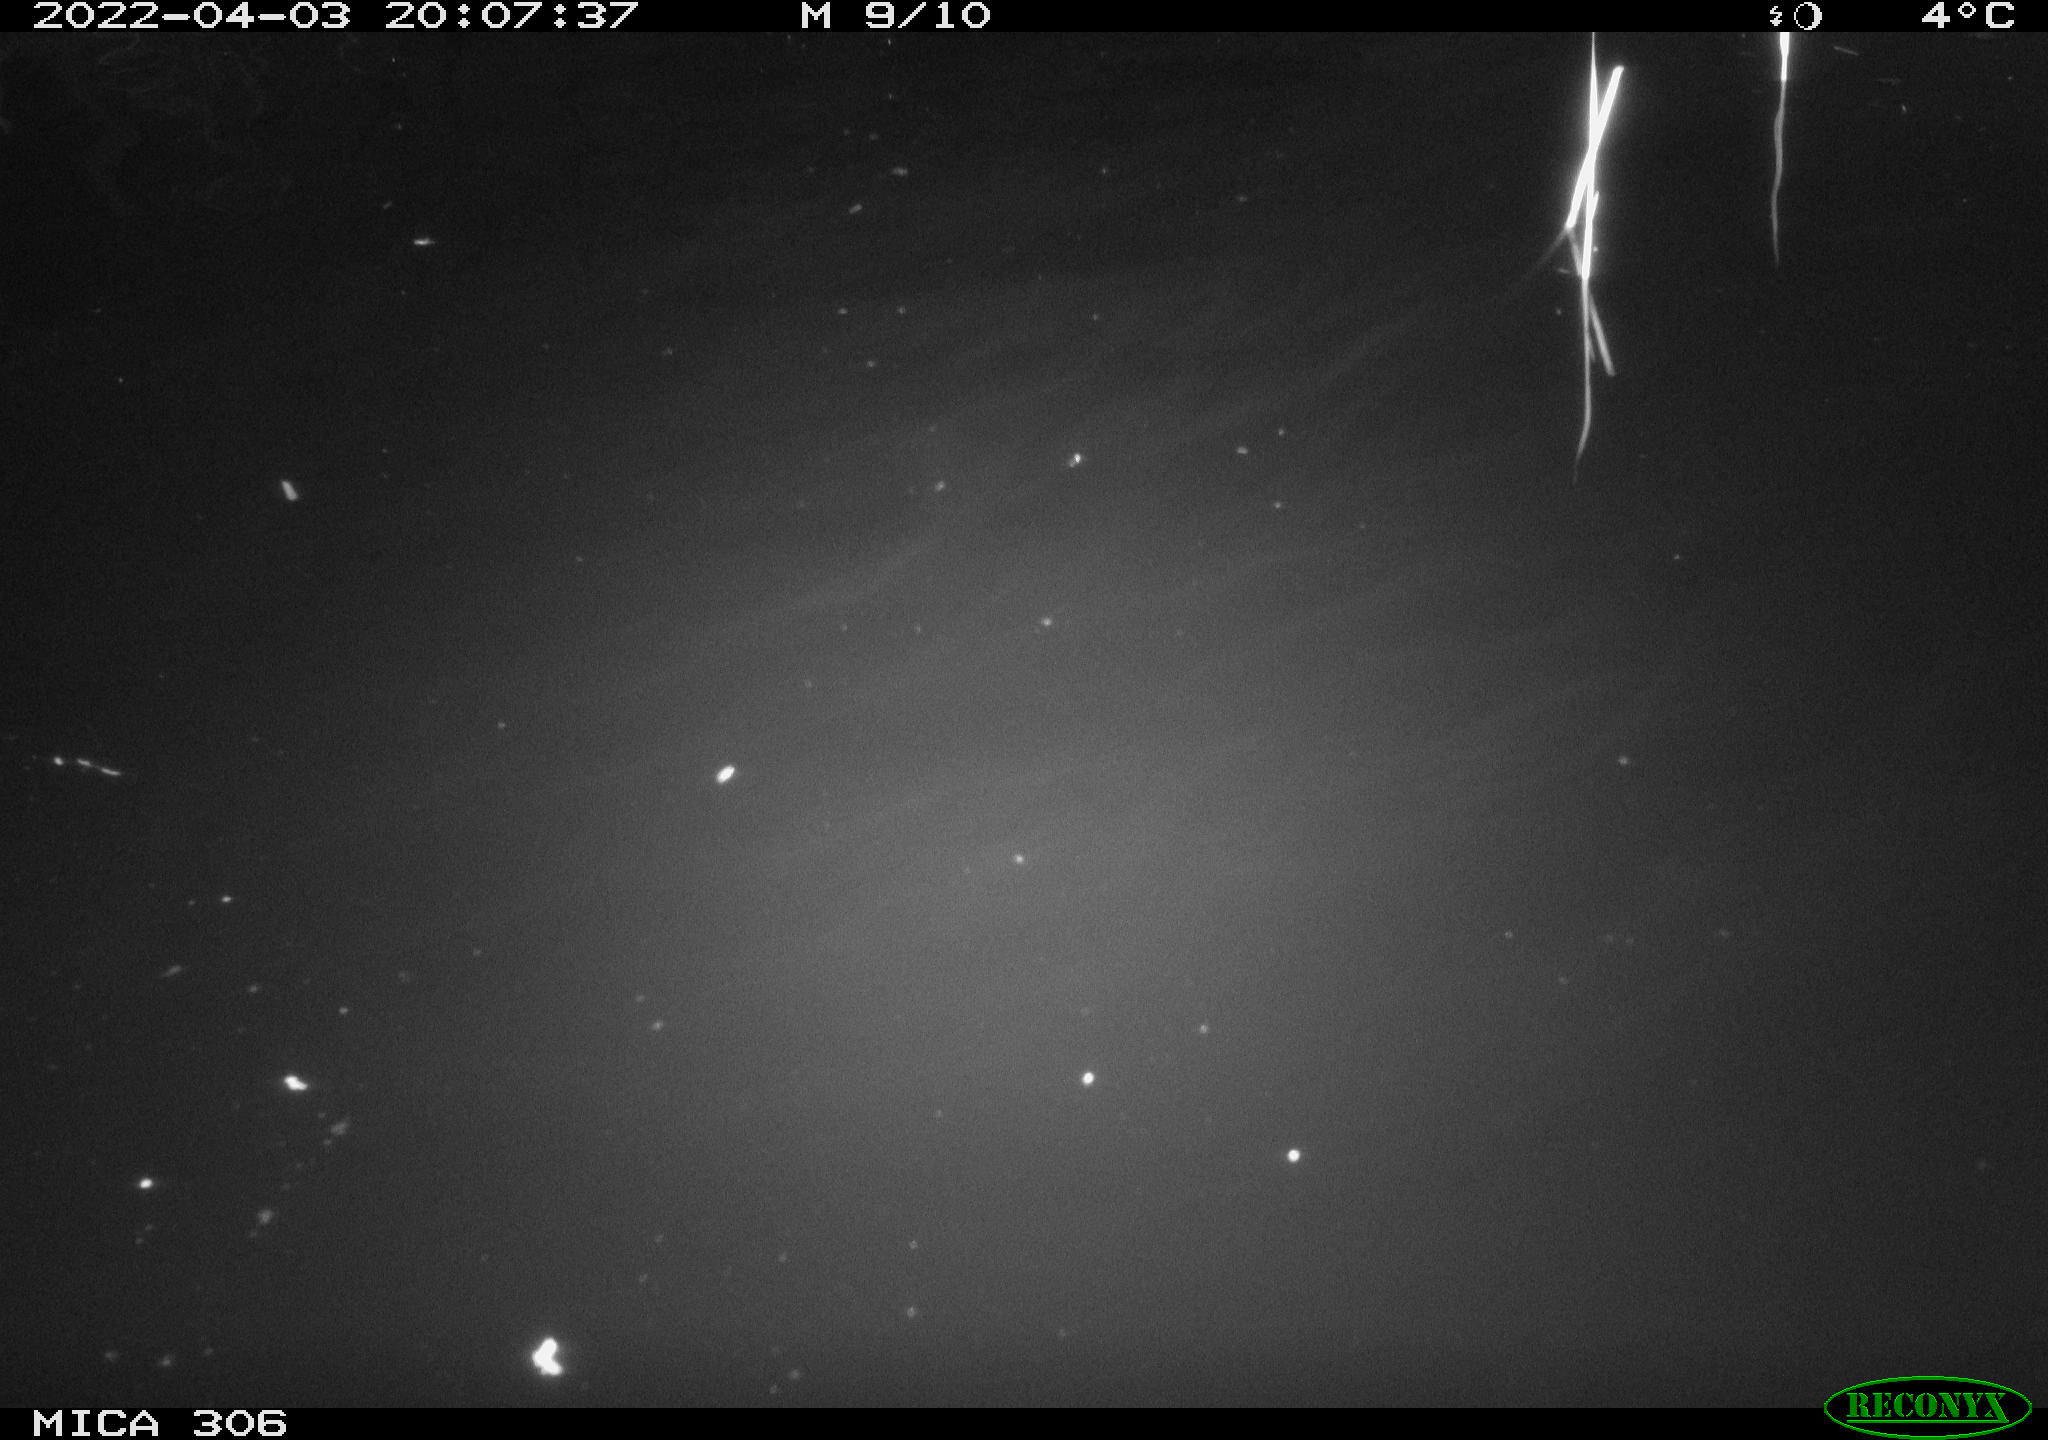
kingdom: Animalia
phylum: Chordata
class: Mammalia
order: Rodentia
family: Cricetidae
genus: Ondatra
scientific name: Ondatra zibethicus
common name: Muskrat
